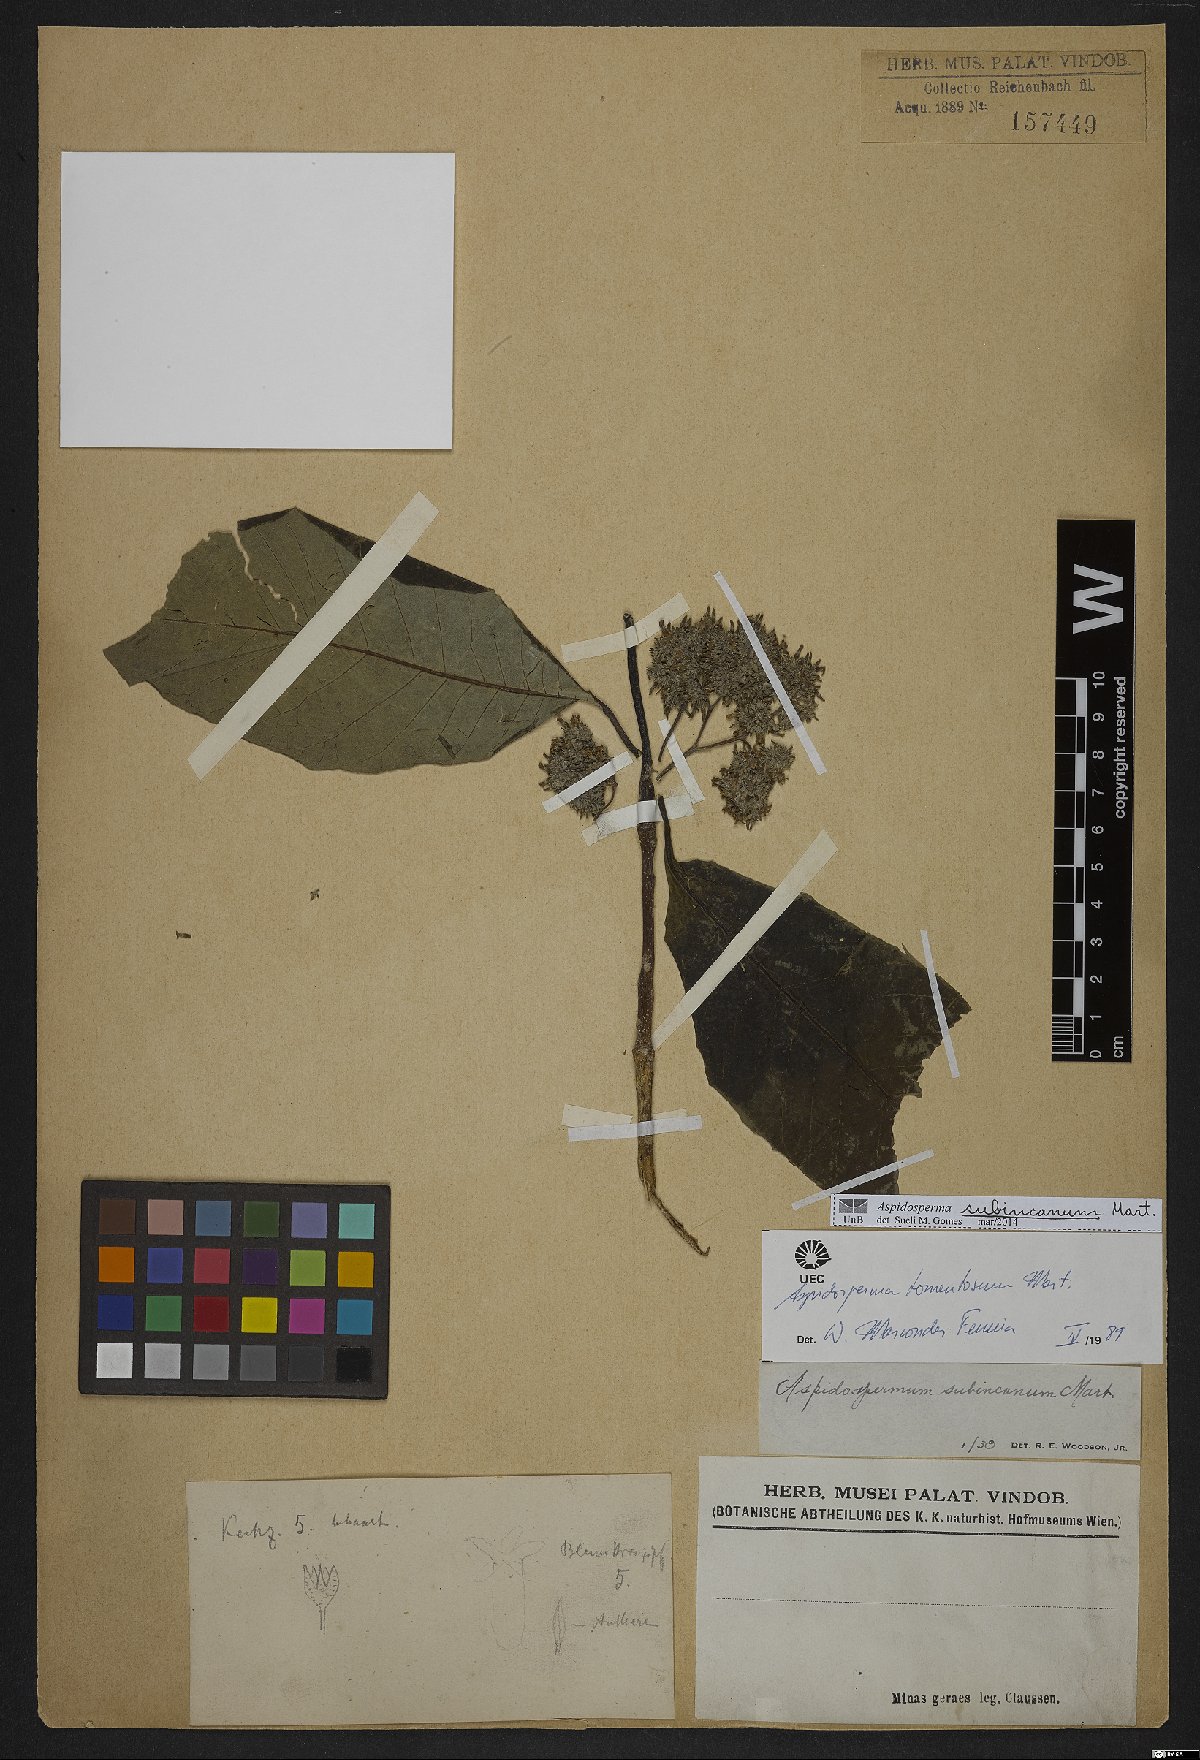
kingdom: Plantae
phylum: Tracheophyta
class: Magnoliopsida
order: Gentianales
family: Apocynaceae
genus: Aspidosperma
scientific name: Aspidosperma subincanum
